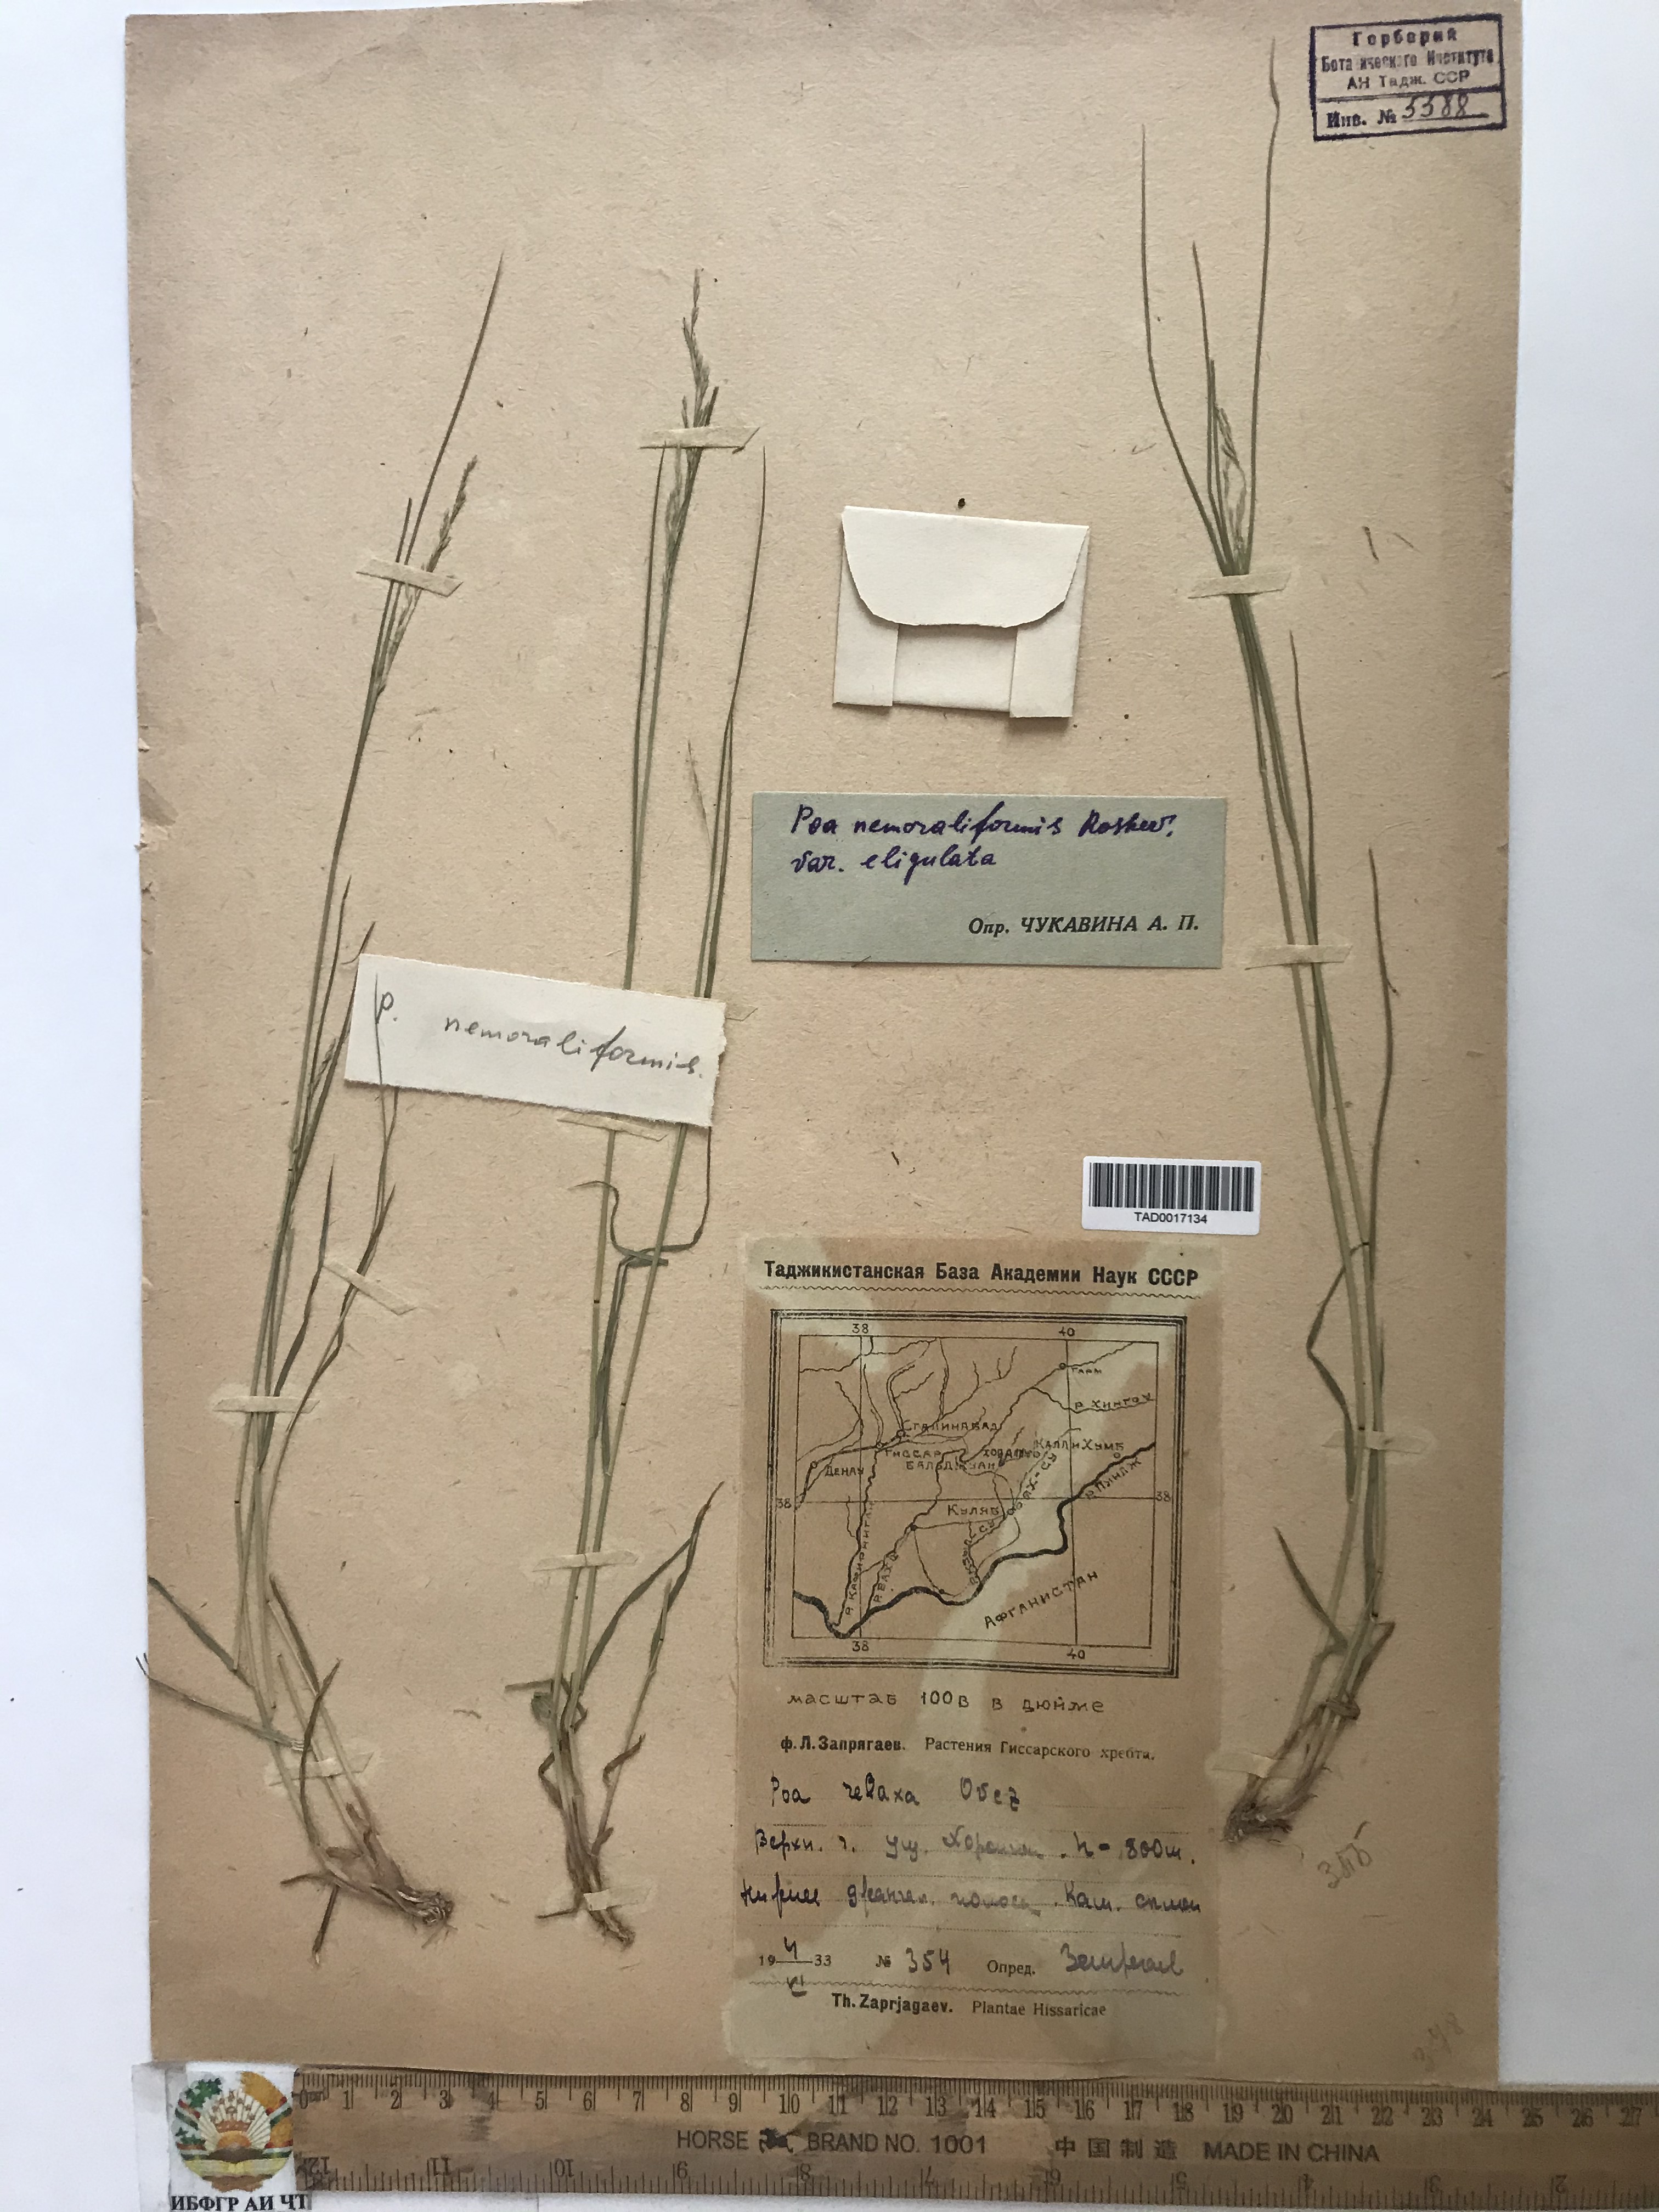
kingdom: Plantae
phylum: Tracheophyta
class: Liliopsida
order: Poales
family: Poaceae
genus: Poa
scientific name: Poa urssulensis
